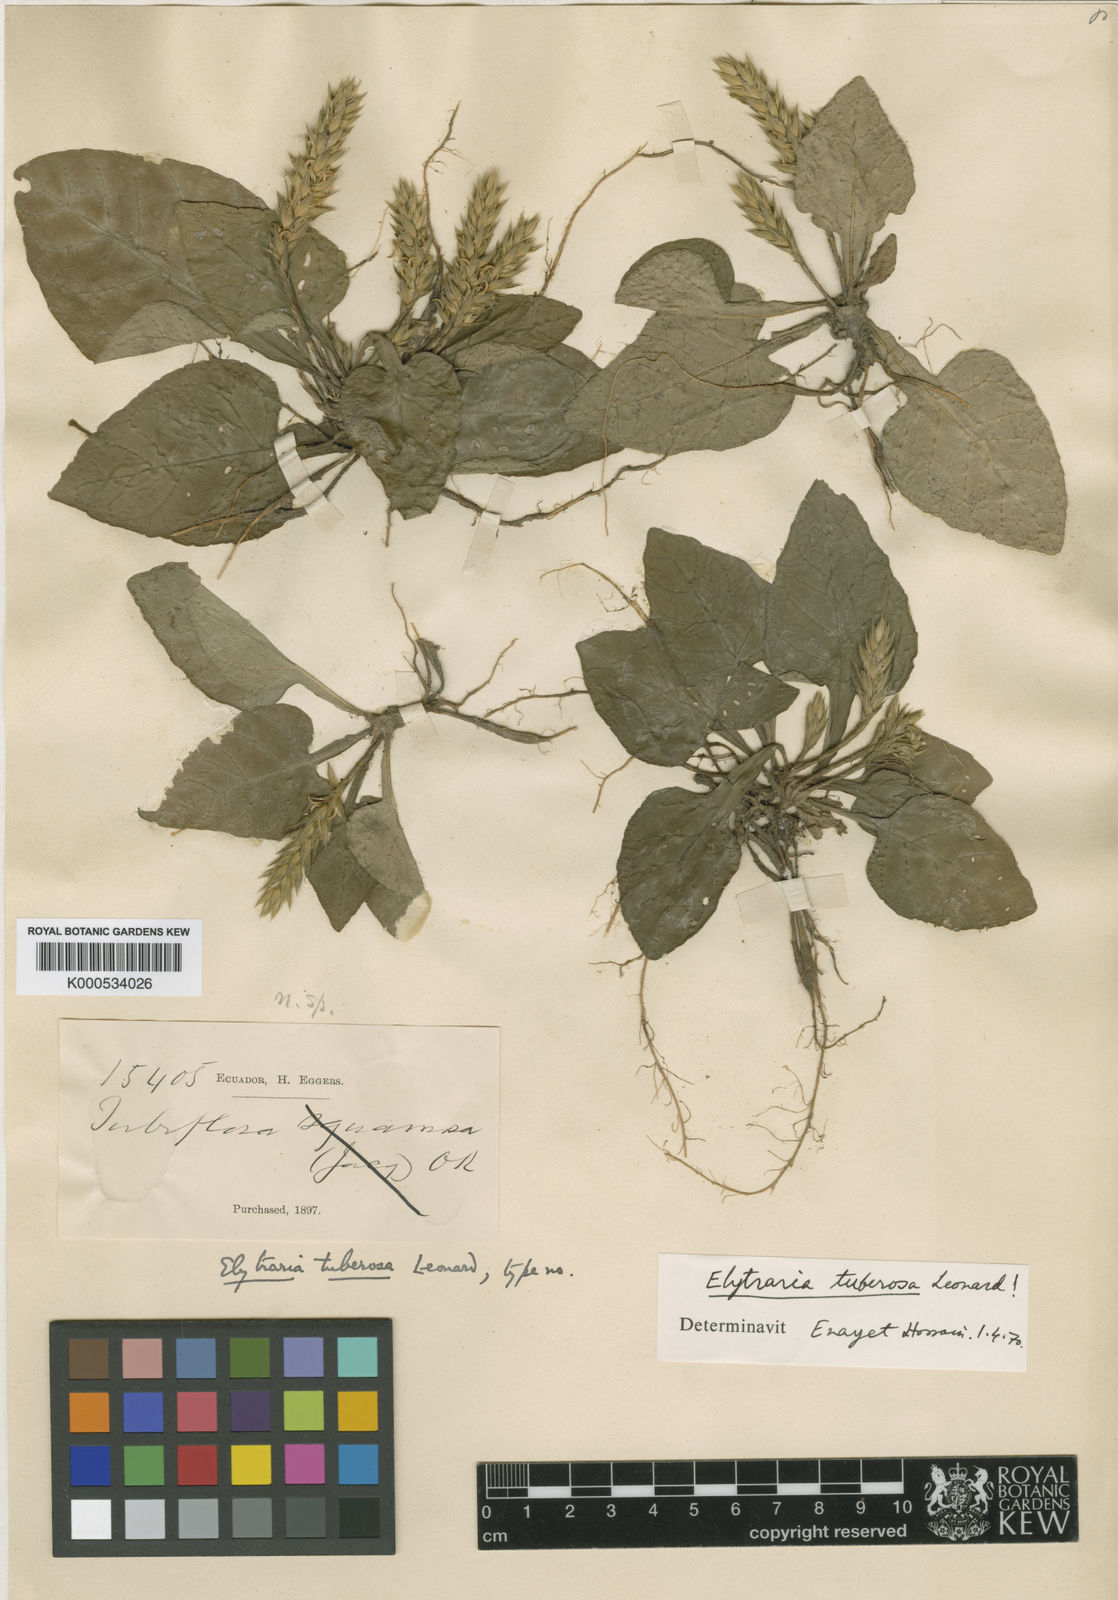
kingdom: Plantae
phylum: Tracheophyta
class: Magnoliopsida
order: Lamiales
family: Acanthaceae
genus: Elytraria
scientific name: Elytraria tuberosa
